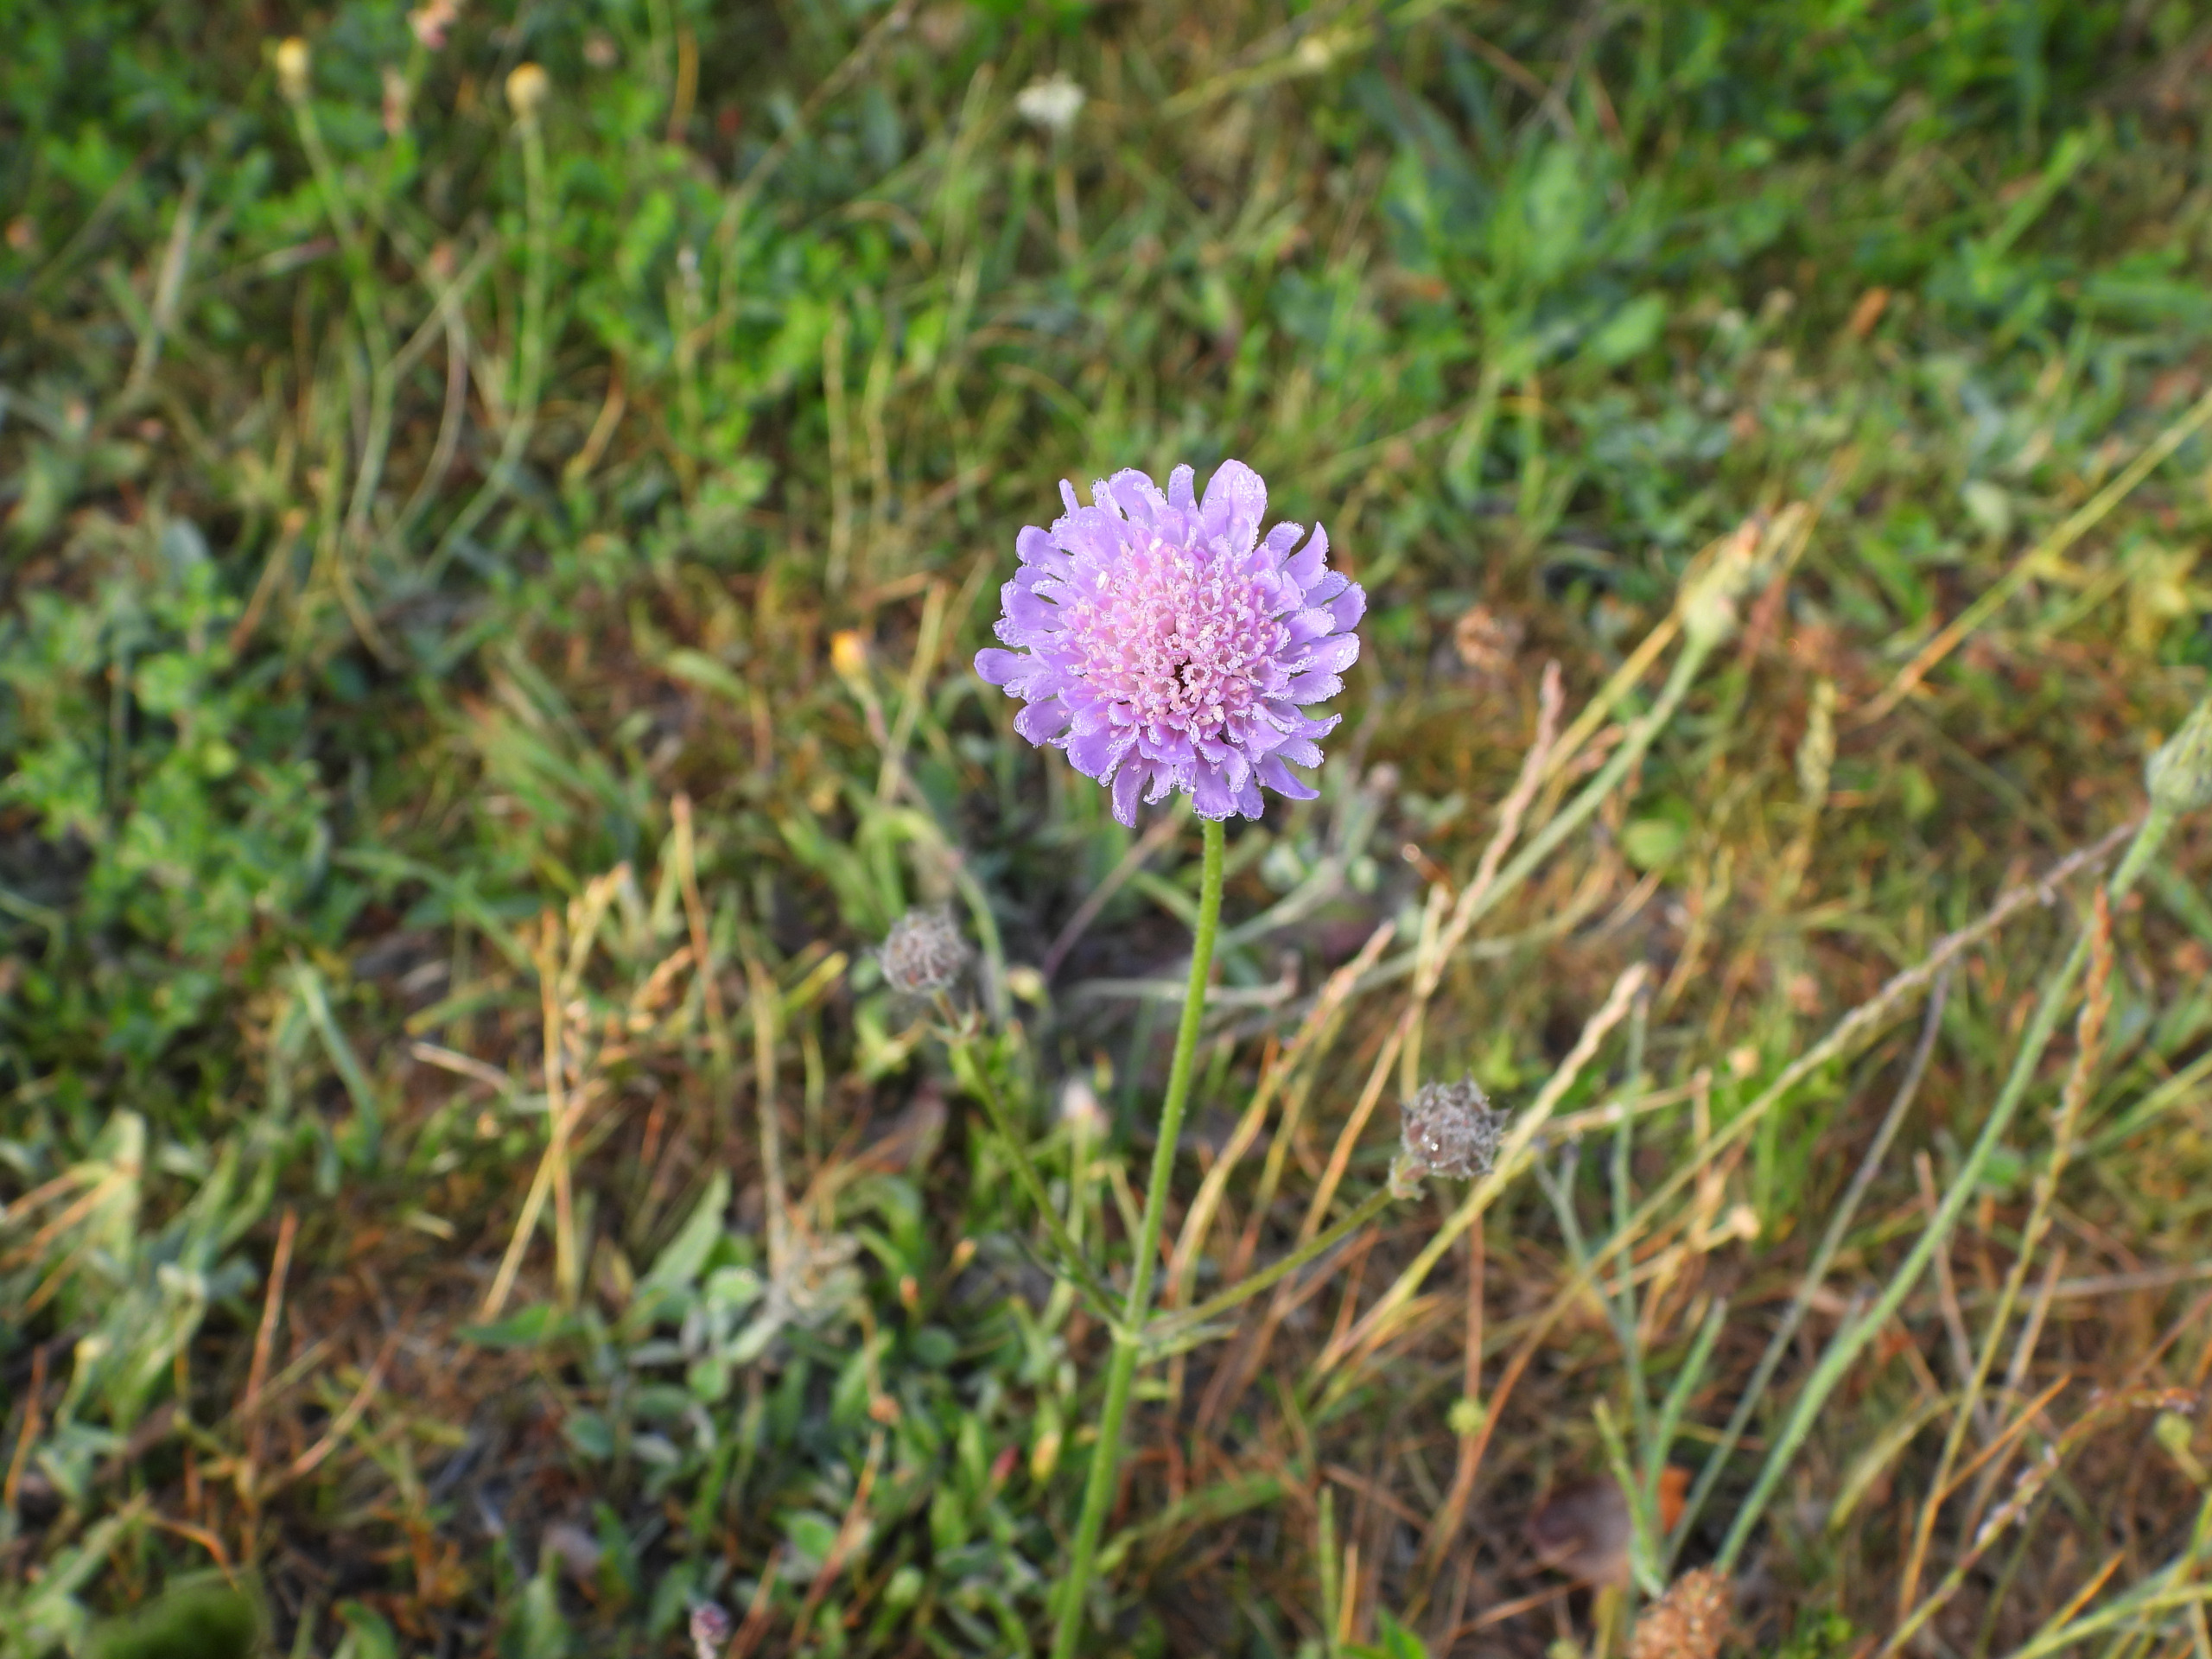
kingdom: Plantae
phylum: Tracheophyta
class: Magnoliopsida
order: Dipsacales
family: Caprifoliaceae
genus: Knautia
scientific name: Knautia arvensis
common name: Blåhat
